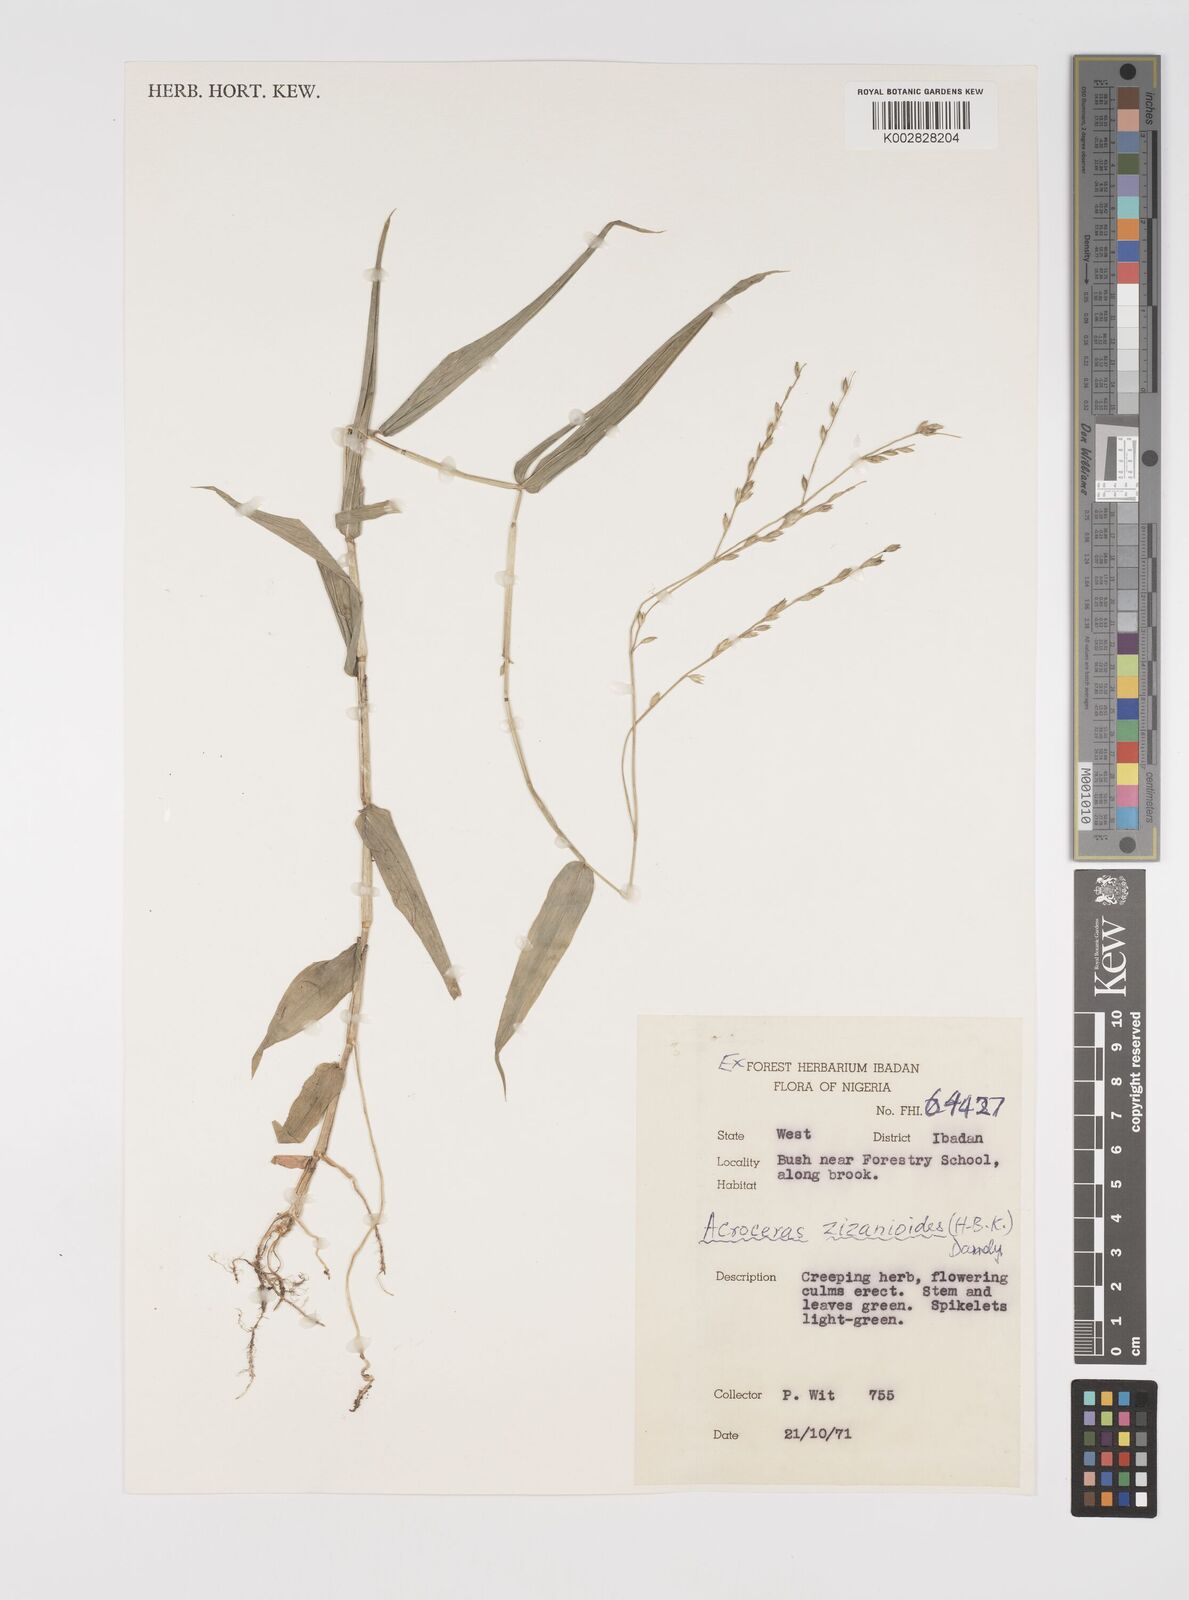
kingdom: Plantae
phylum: Tracheophyta
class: Liliopsida
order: Poales
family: Poaceae
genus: Acroceras
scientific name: Acroceras zizanioides
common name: Oat grass
